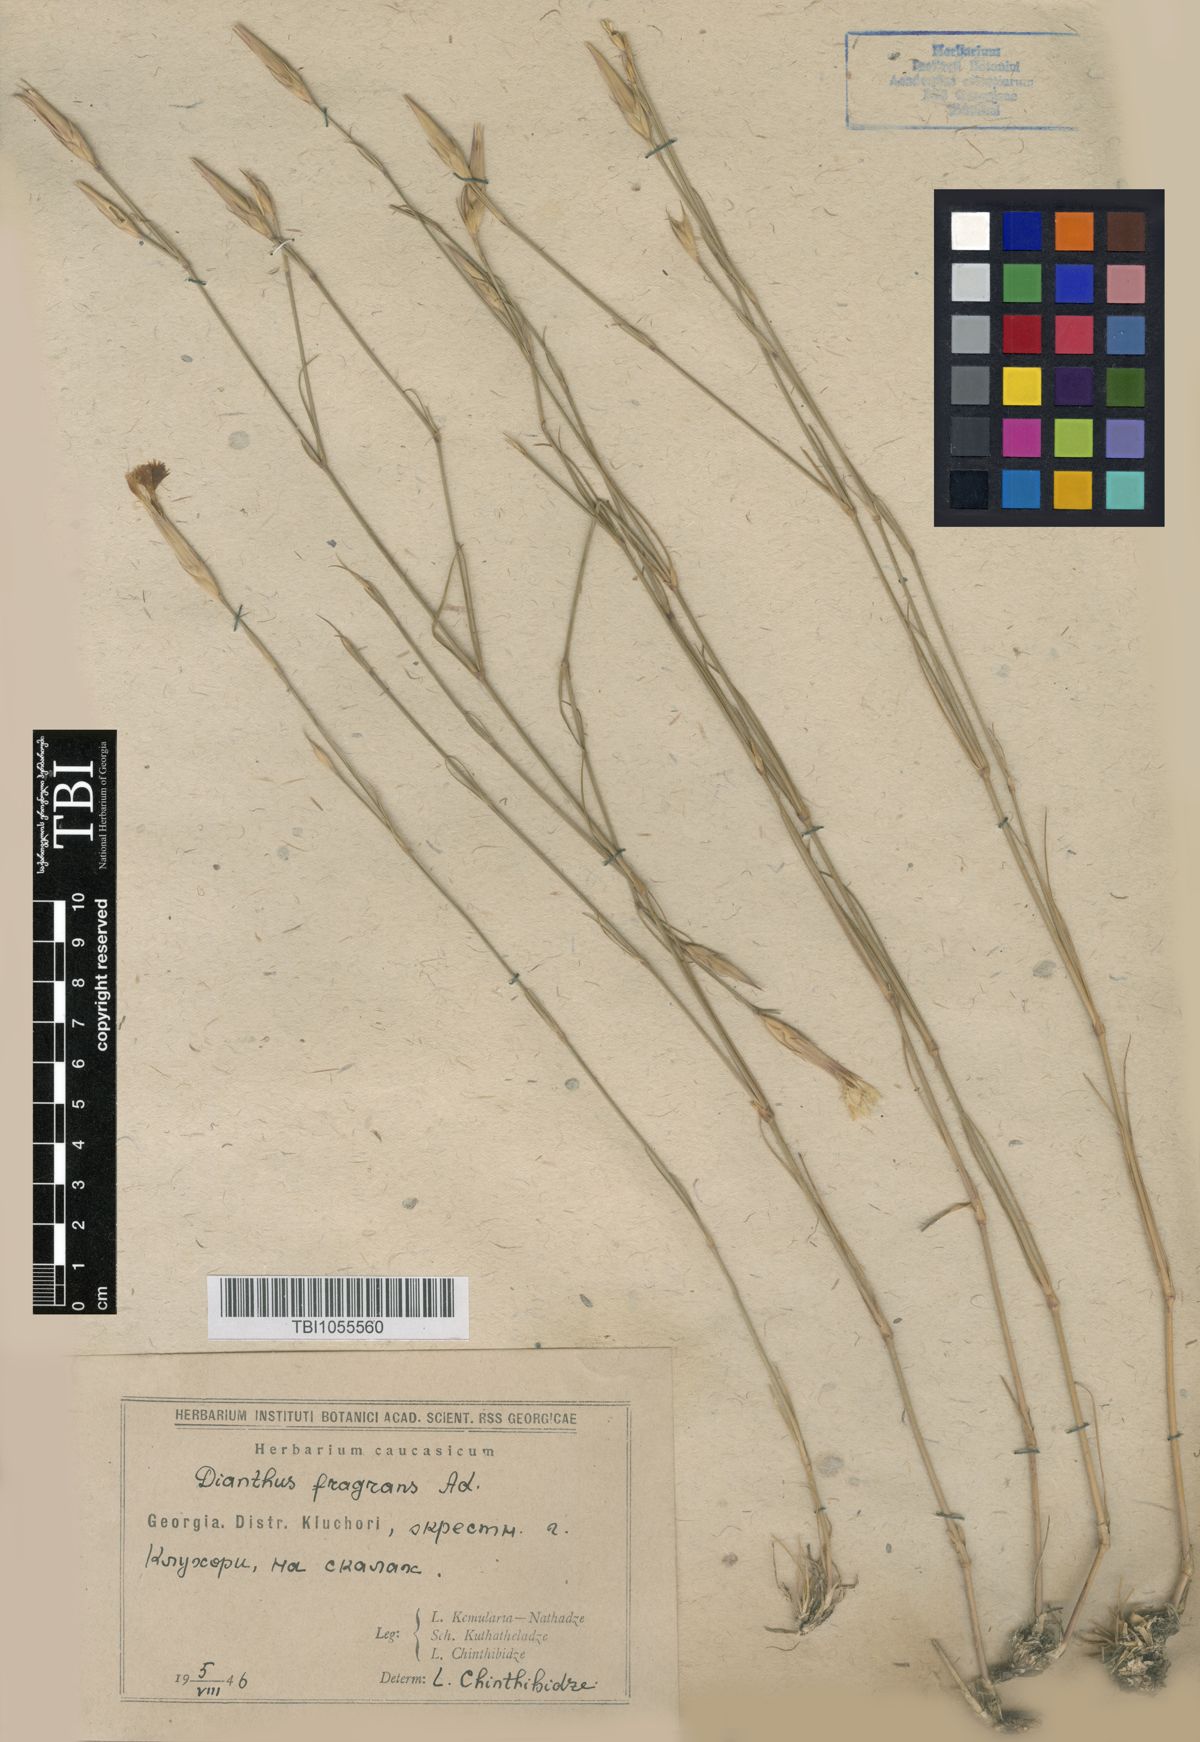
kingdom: Plantae
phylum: Tracheophyta
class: Magnoliopsida
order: Caryophyllales
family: Caryophyllaceae
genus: Dianthus
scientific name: Dianthus
